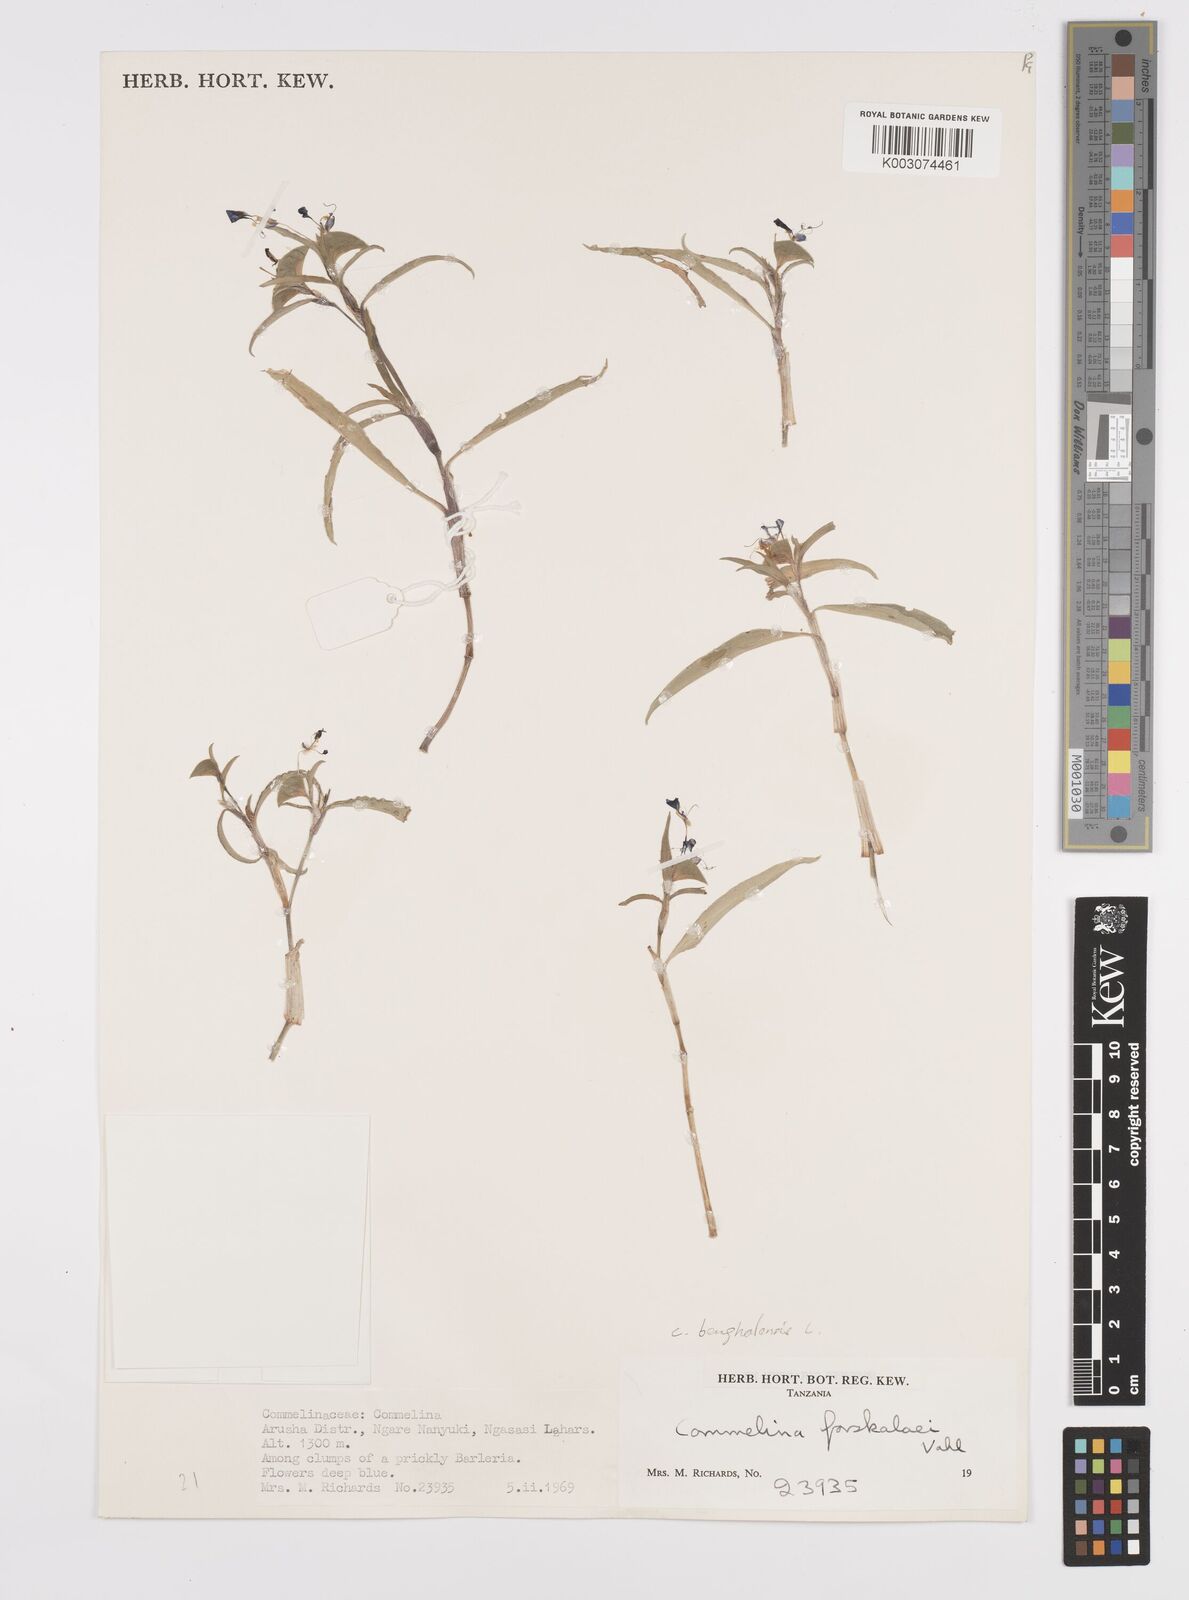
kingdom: Plantae
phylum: Tracheophyta
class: Liliopsida
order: Commelinales
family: Commelinaceae
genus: Commelina
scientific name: Commelina
